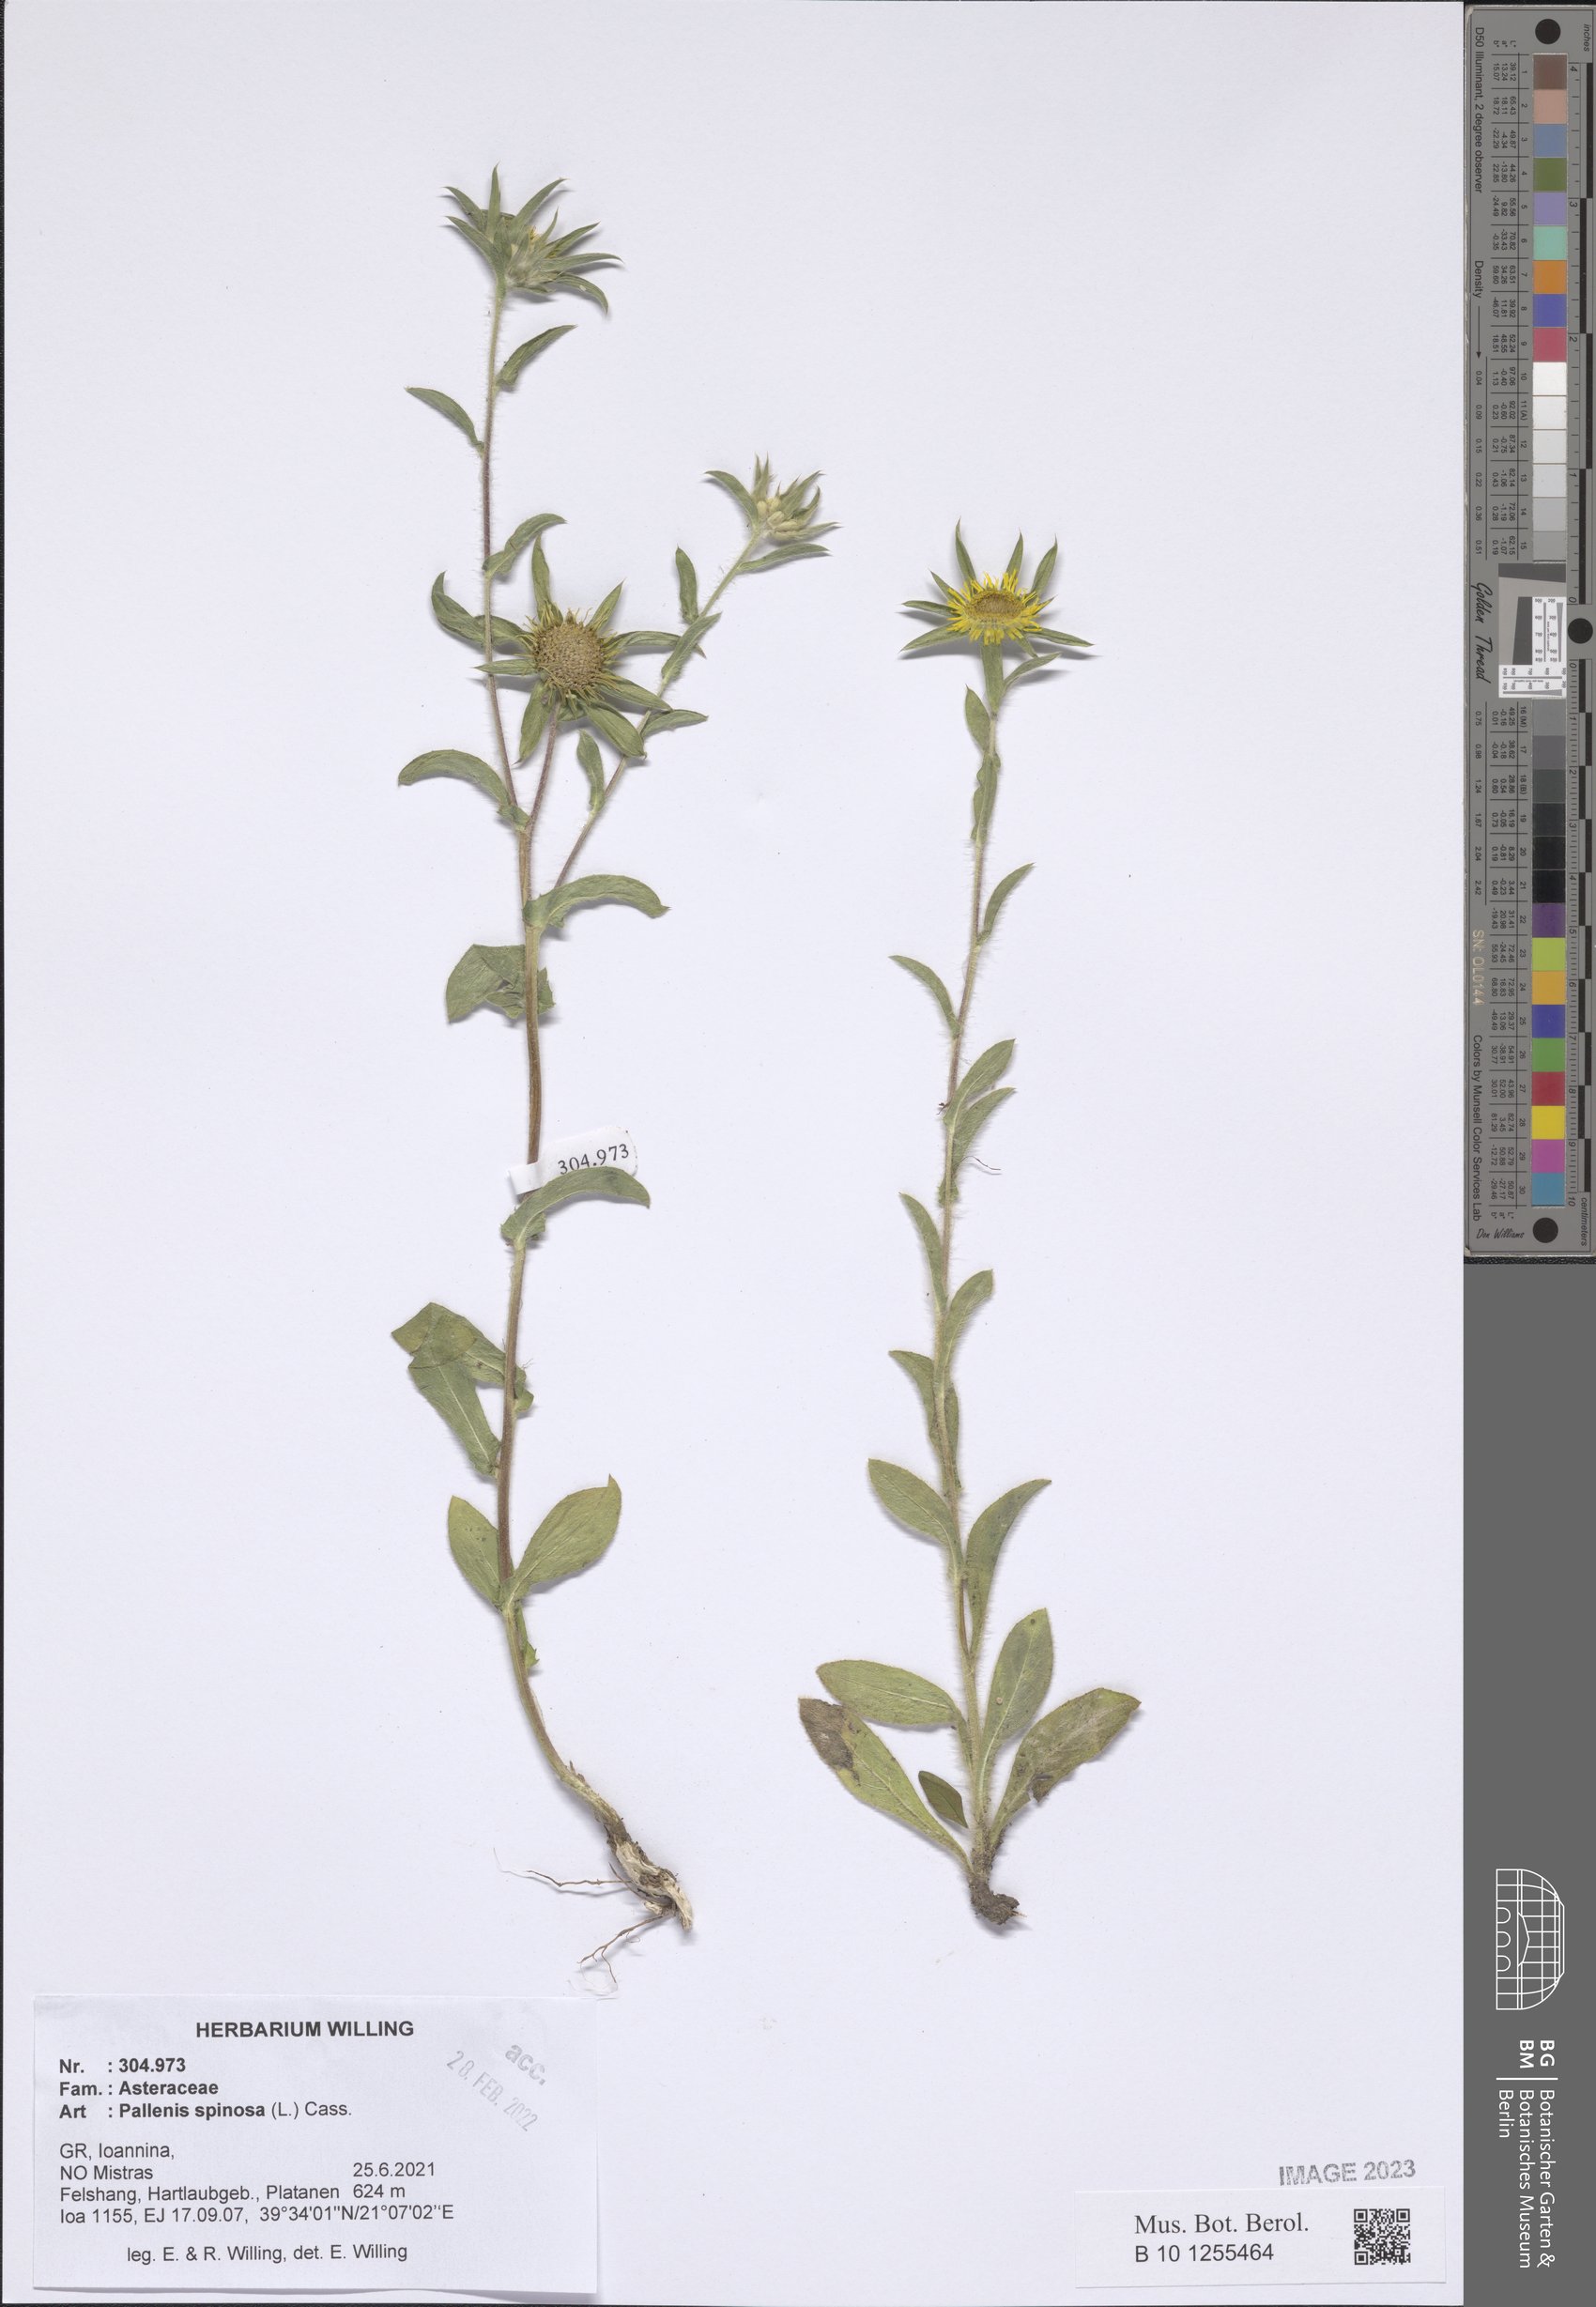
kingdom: Plantae
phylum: Tracheophyta
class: Magnoliopsida
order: Asterales
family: Asteraceae
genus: Pallenis
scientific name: Pallenis spinosa
